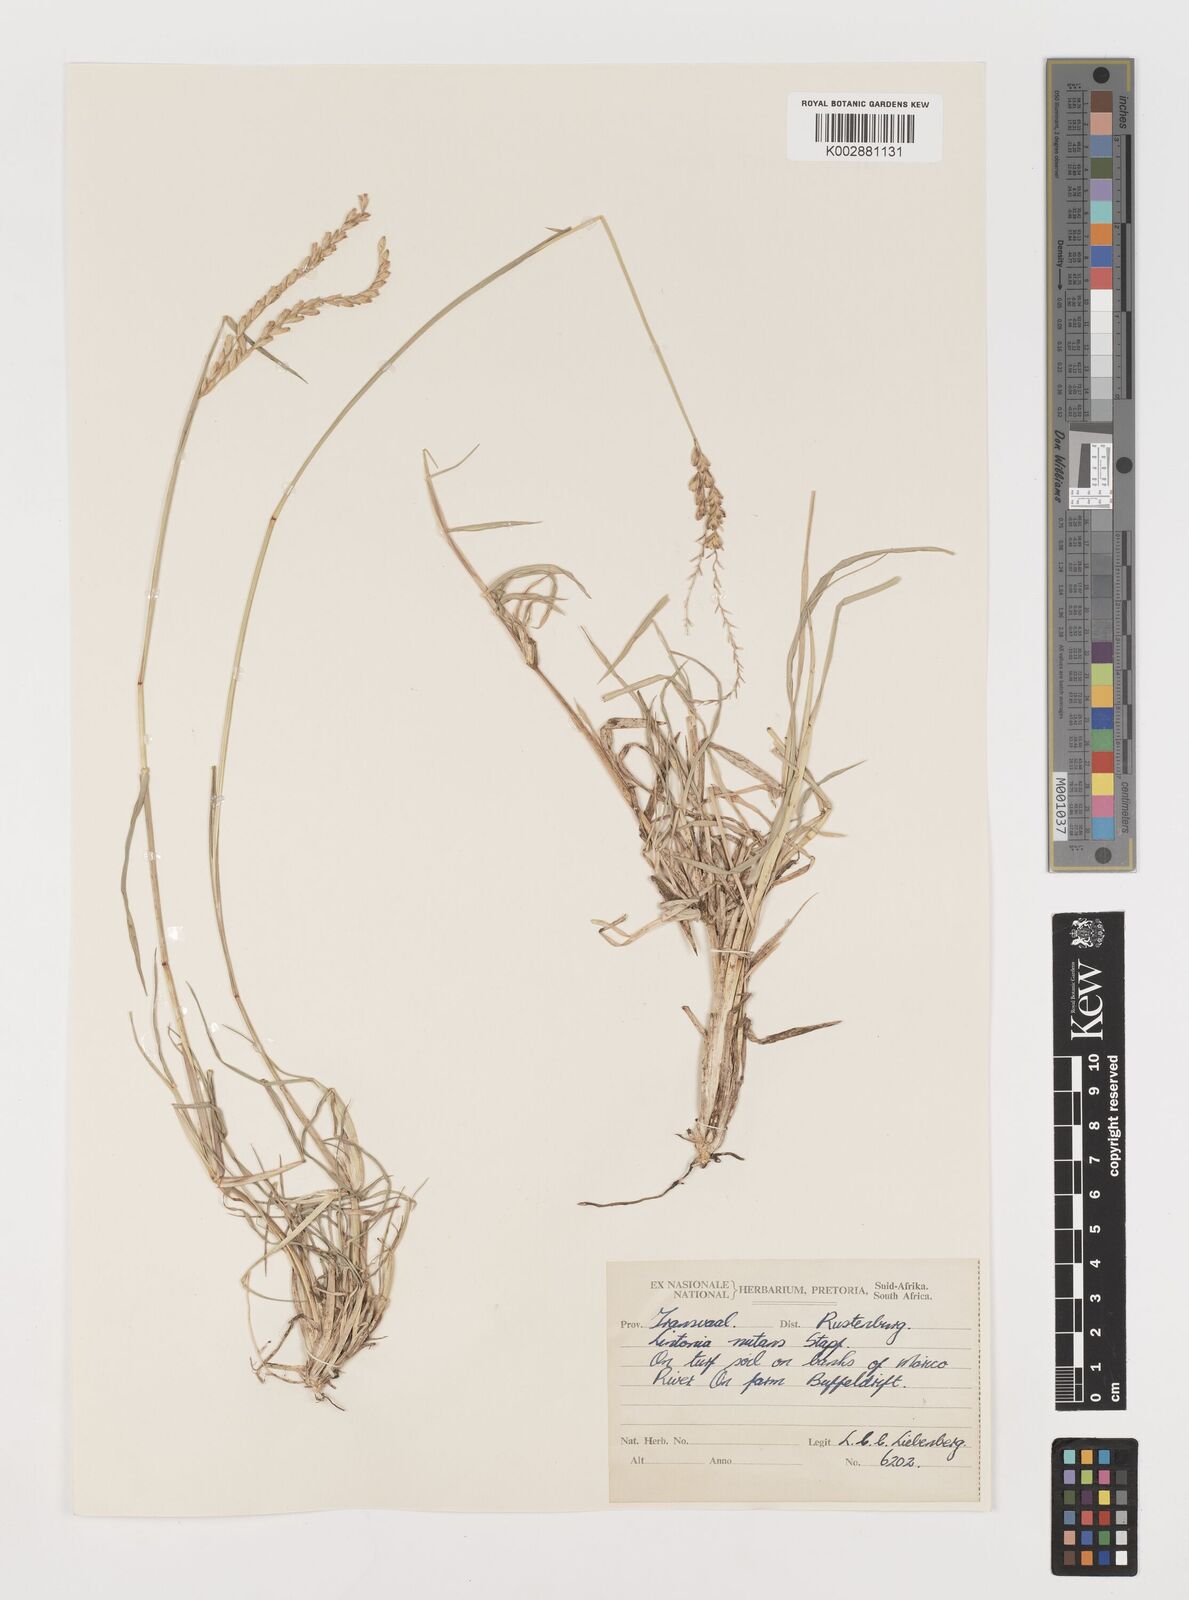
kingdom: Plantae
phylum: Tracheophyta
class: Liliopsida
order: Poales
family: Poaceae
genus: Chloris
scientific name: Chloris nutans
